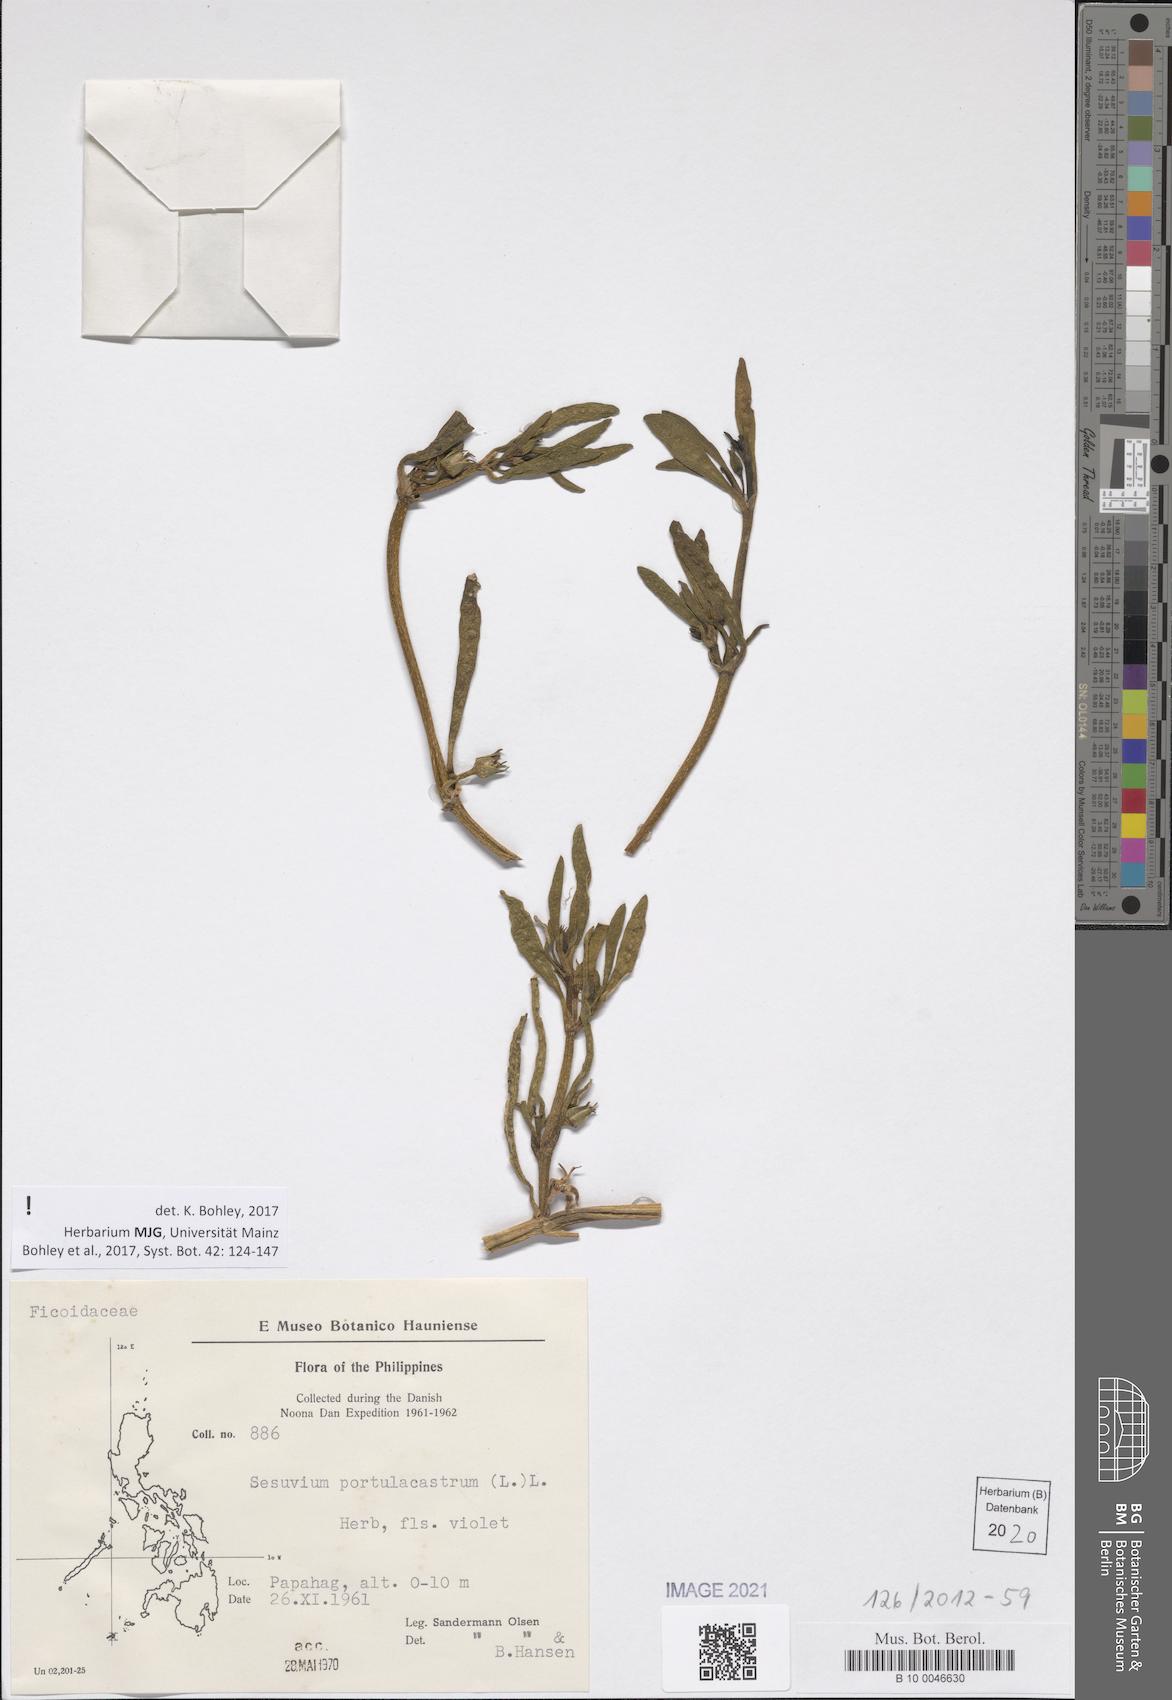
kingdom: Plantae
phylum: Tracheophyta
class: Magnoliopsida
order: Caryophyllales
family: Aizoaceae
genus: Sesuvium
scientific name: Sesuvium portulacastrum
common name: Sea-purslane
